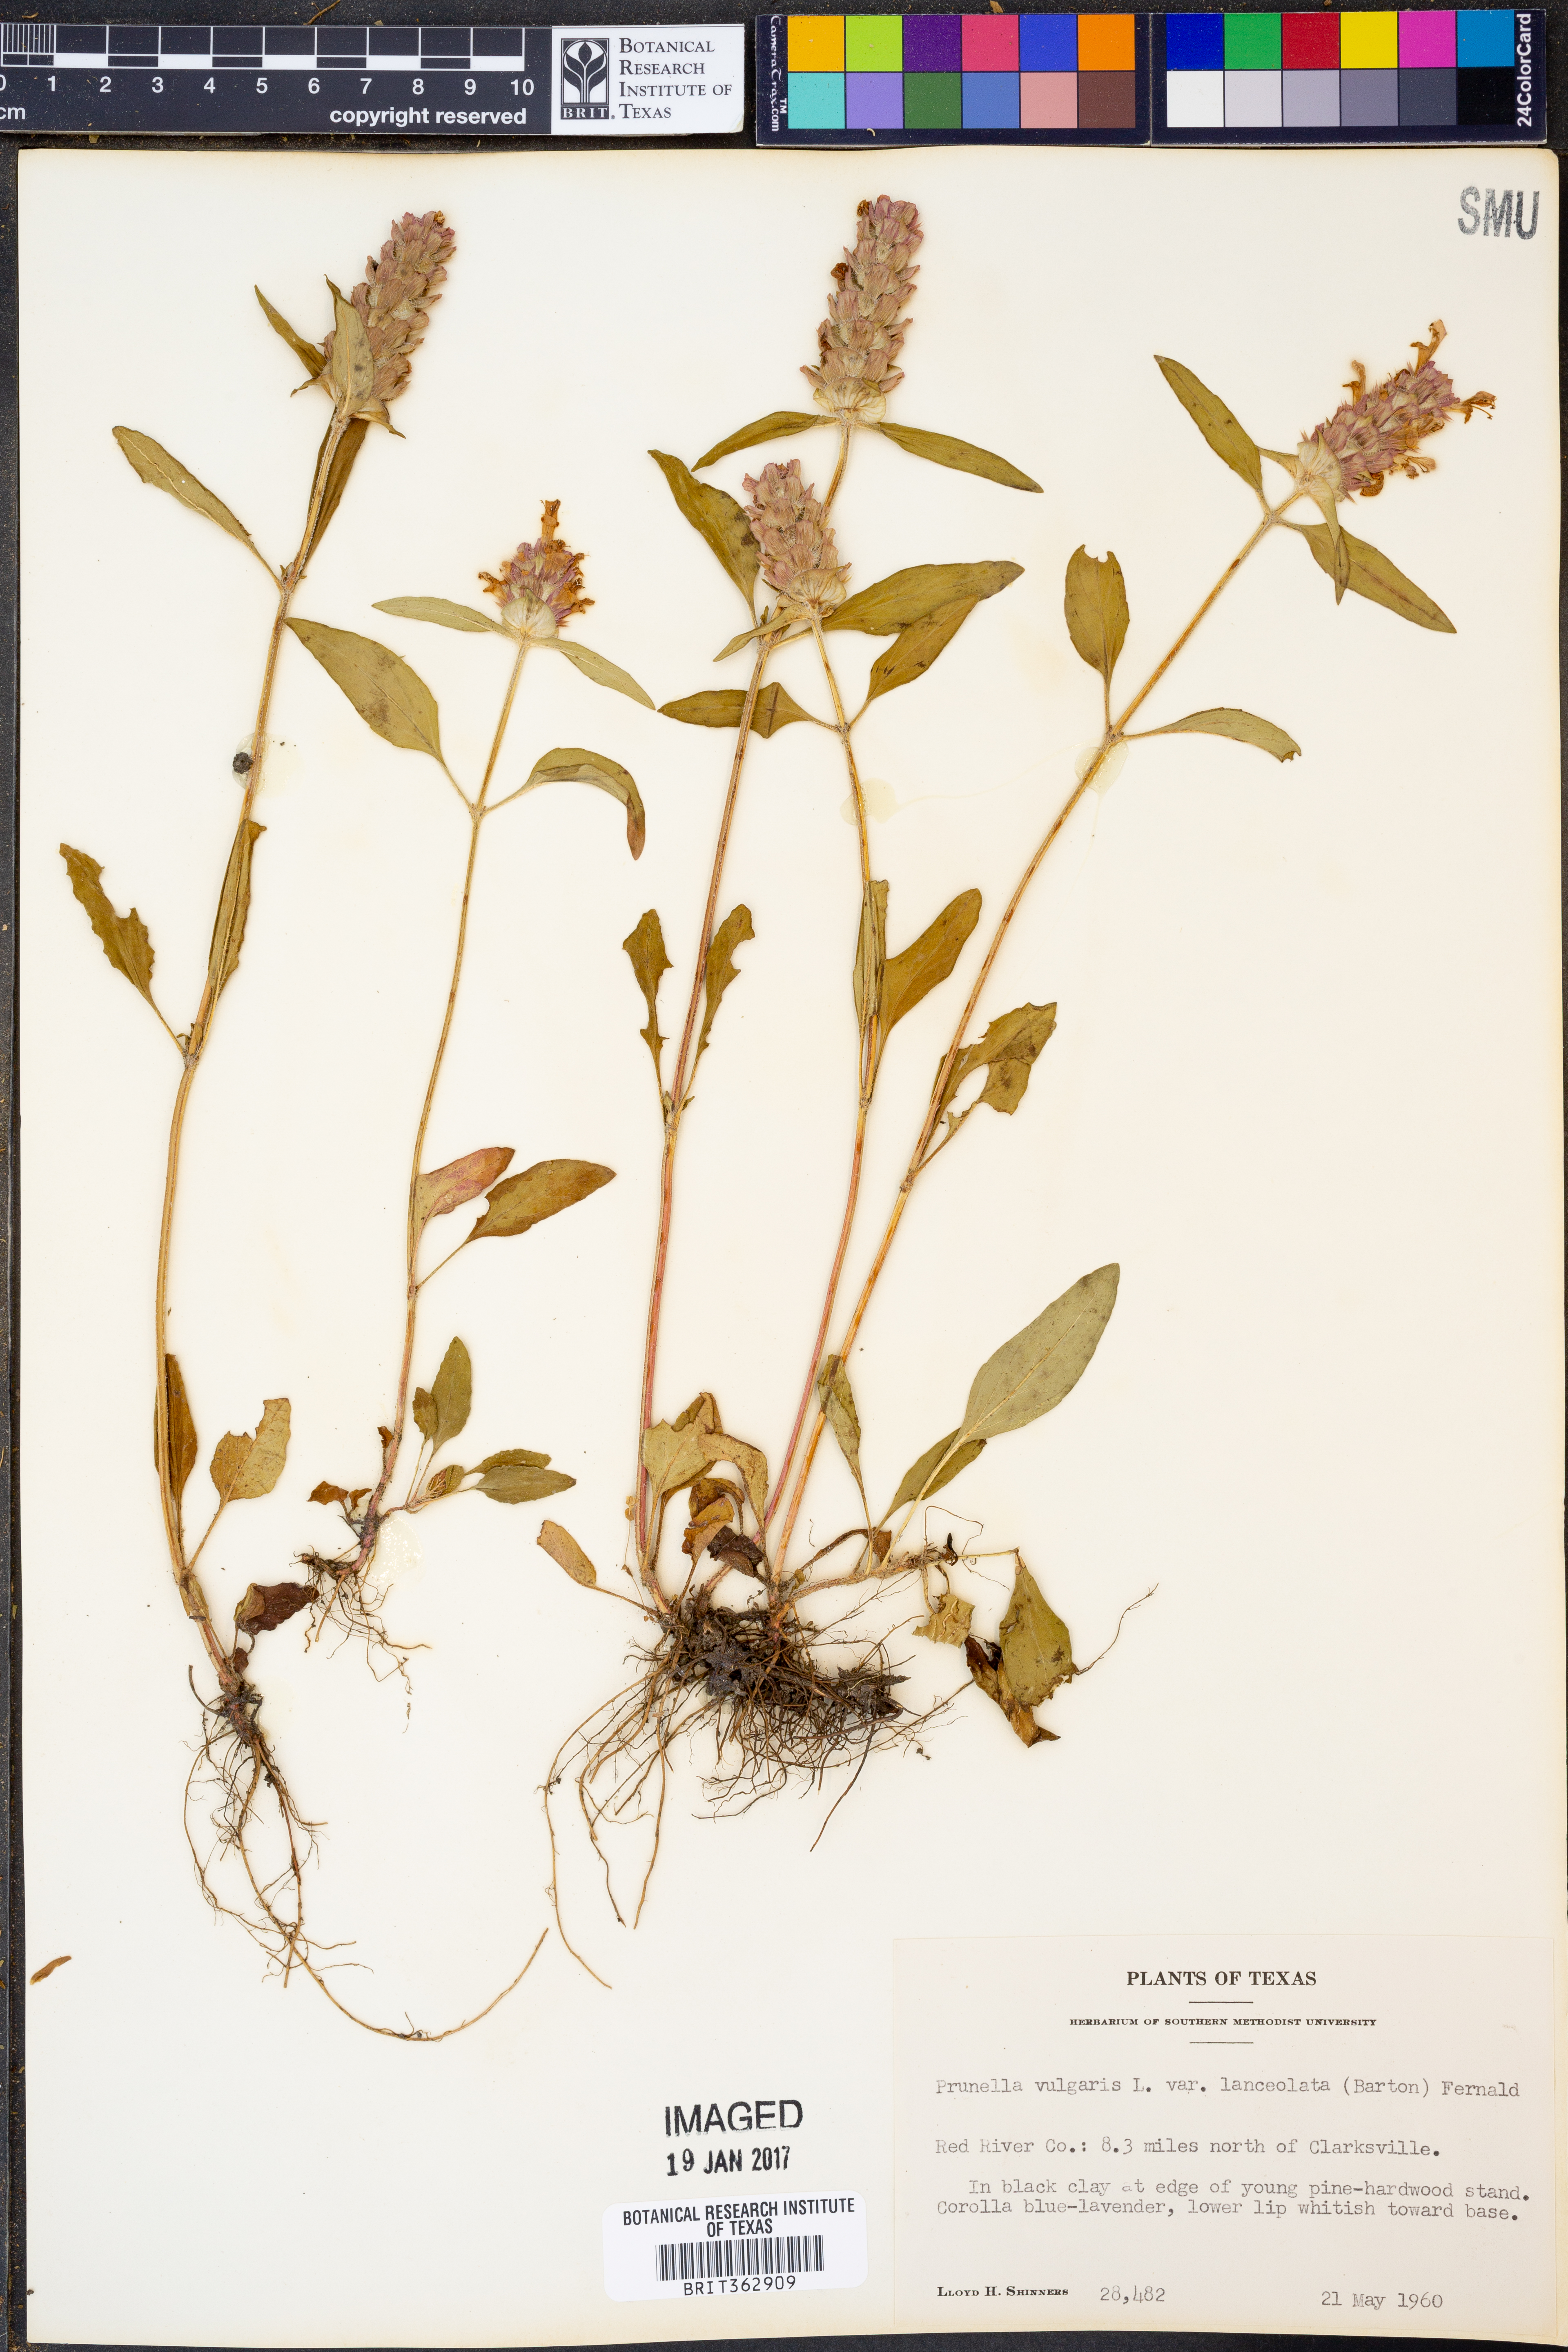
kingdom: Plantae
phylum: Tracheophyta
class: Magnoliopsida
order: Lamiales
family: Lamiaceae
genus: Prunella
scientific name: Prunella vulgaris
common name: Heal-all
